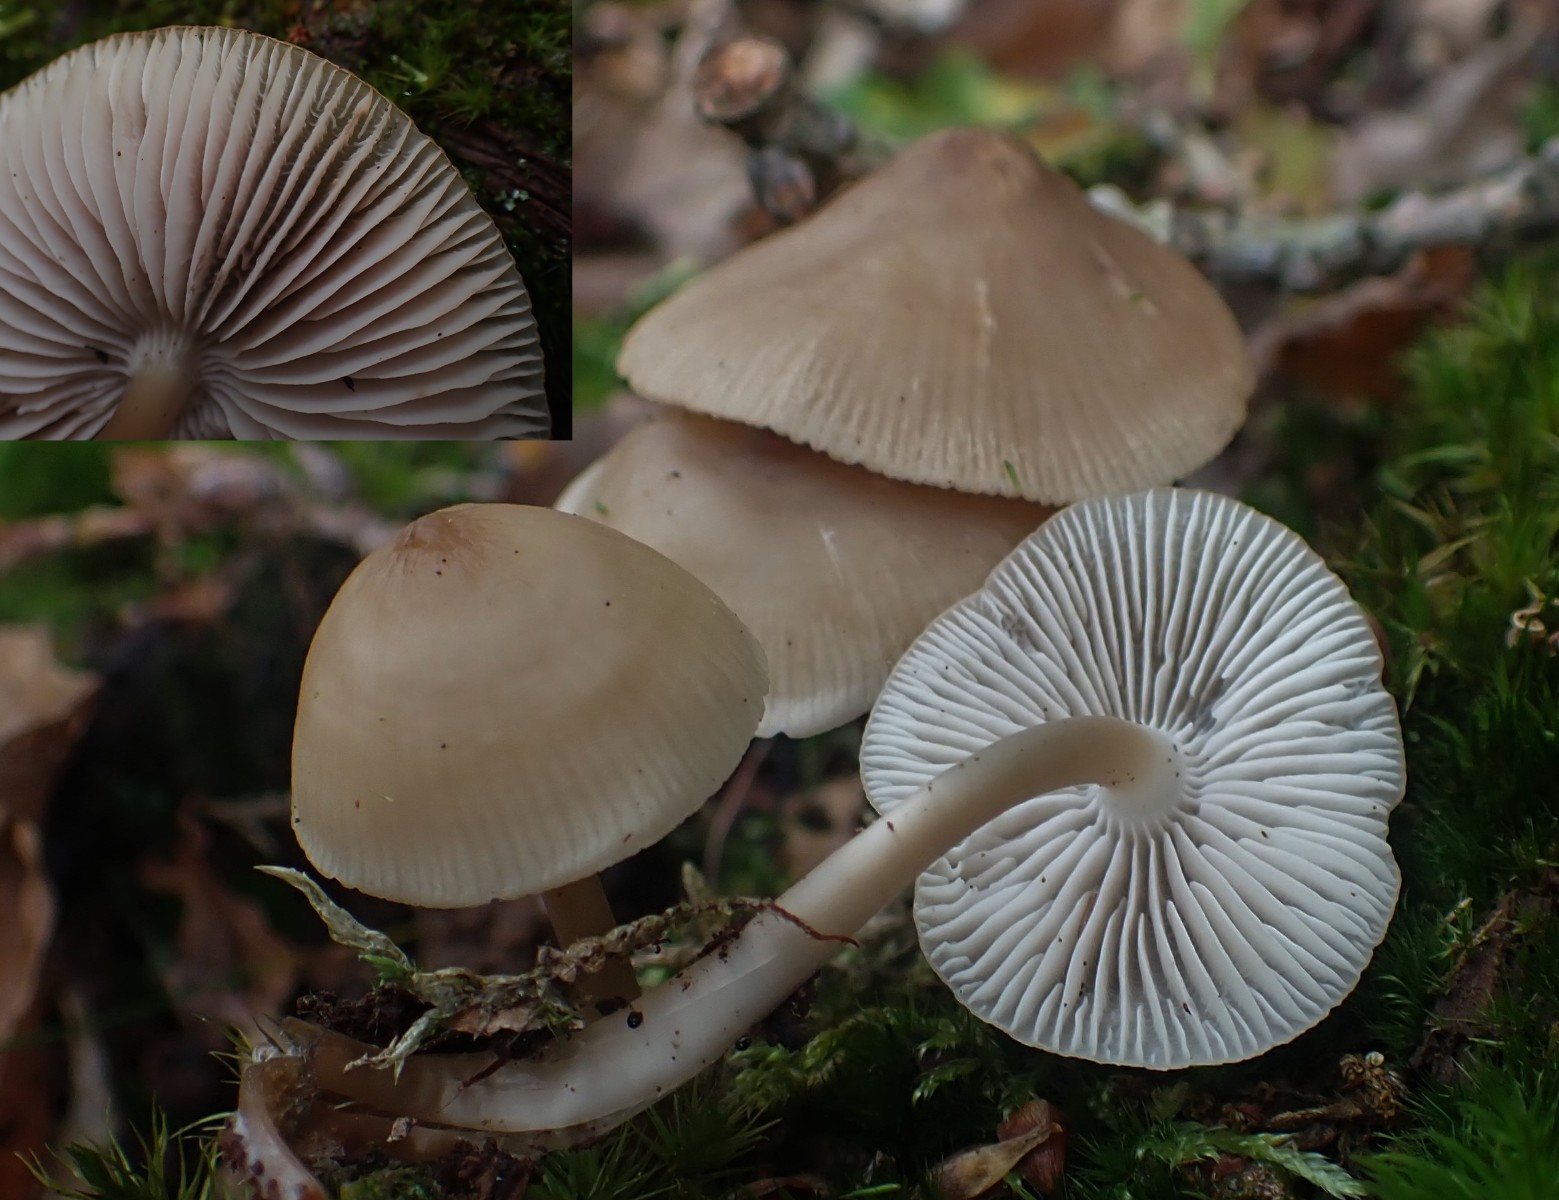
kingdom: Fungi
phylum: Basidiomycota
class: Agaricomycetes
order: Agaricales
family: Mycenaceae
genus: Mycena
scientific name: Mycena galericulata
